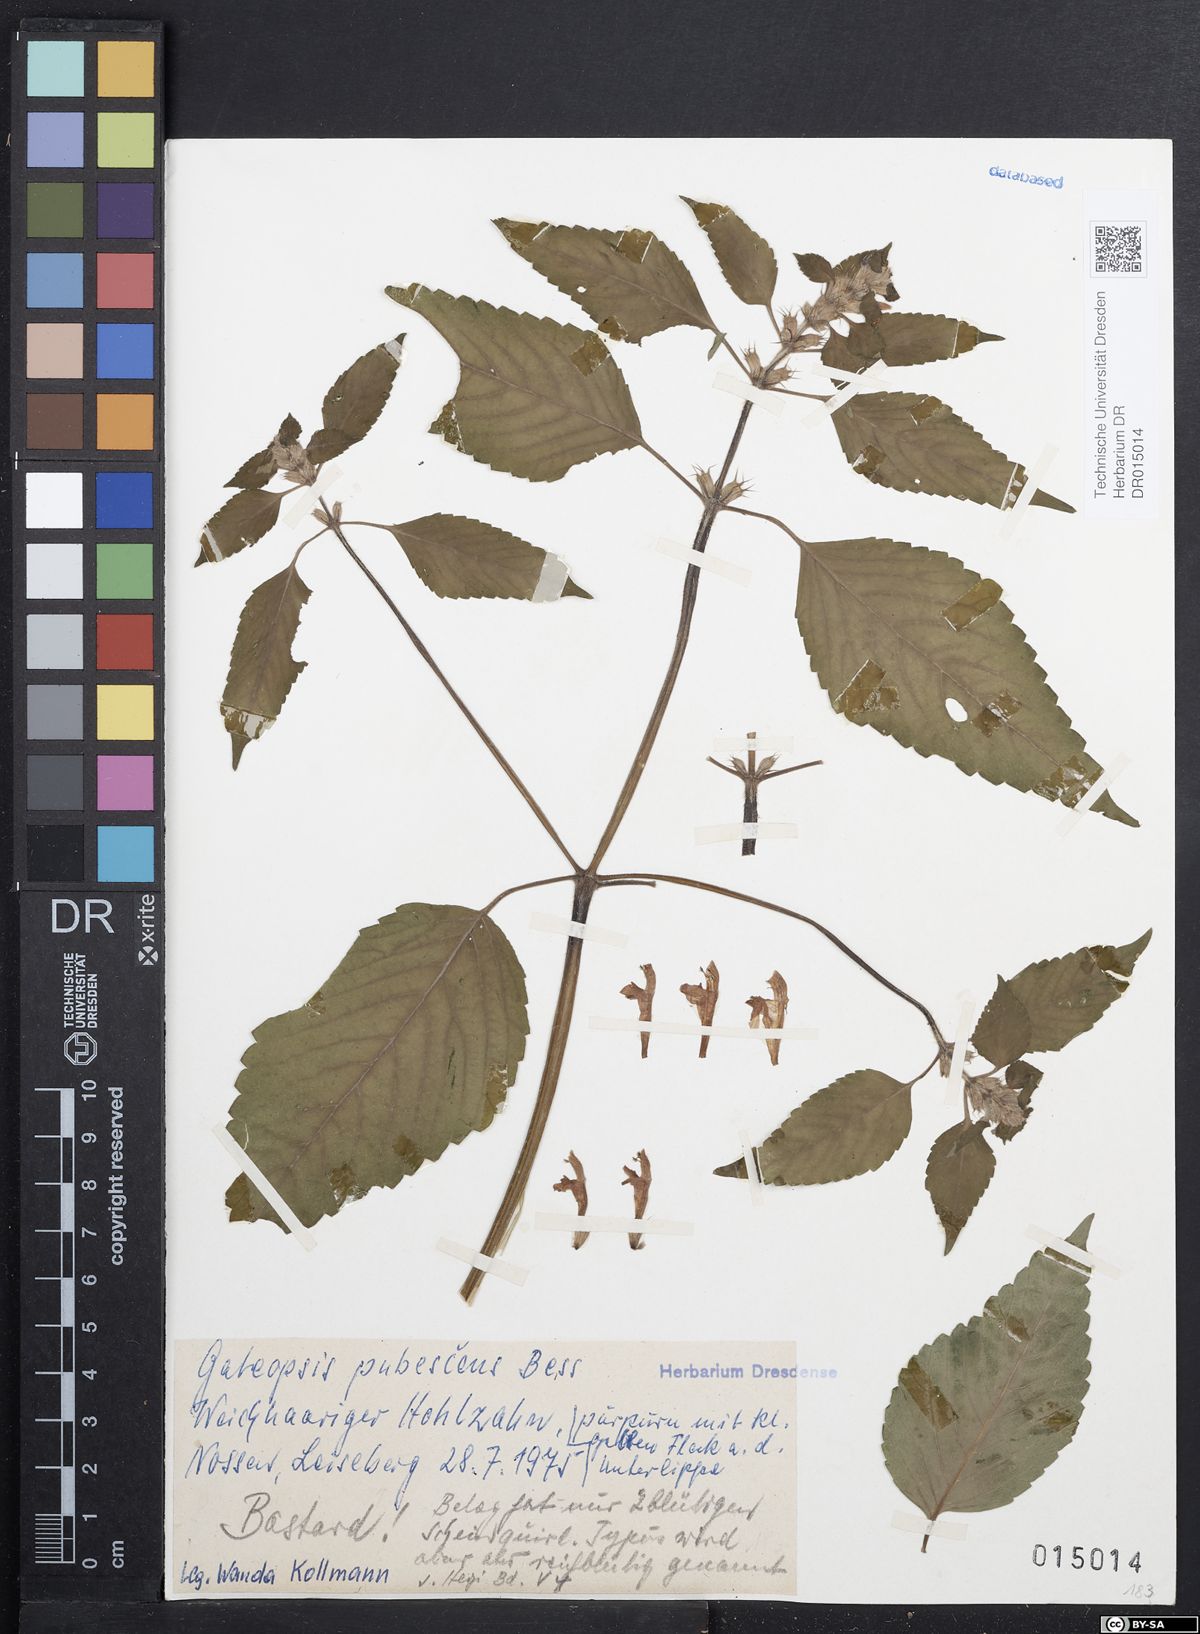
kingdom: Plantae
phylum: Tracheophyta
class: Magnoliopsida
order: Lamiales
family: Lamiaceae
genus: Galeopsis
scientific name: Galeopsis pubescens
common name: Downy hemp-nettle
